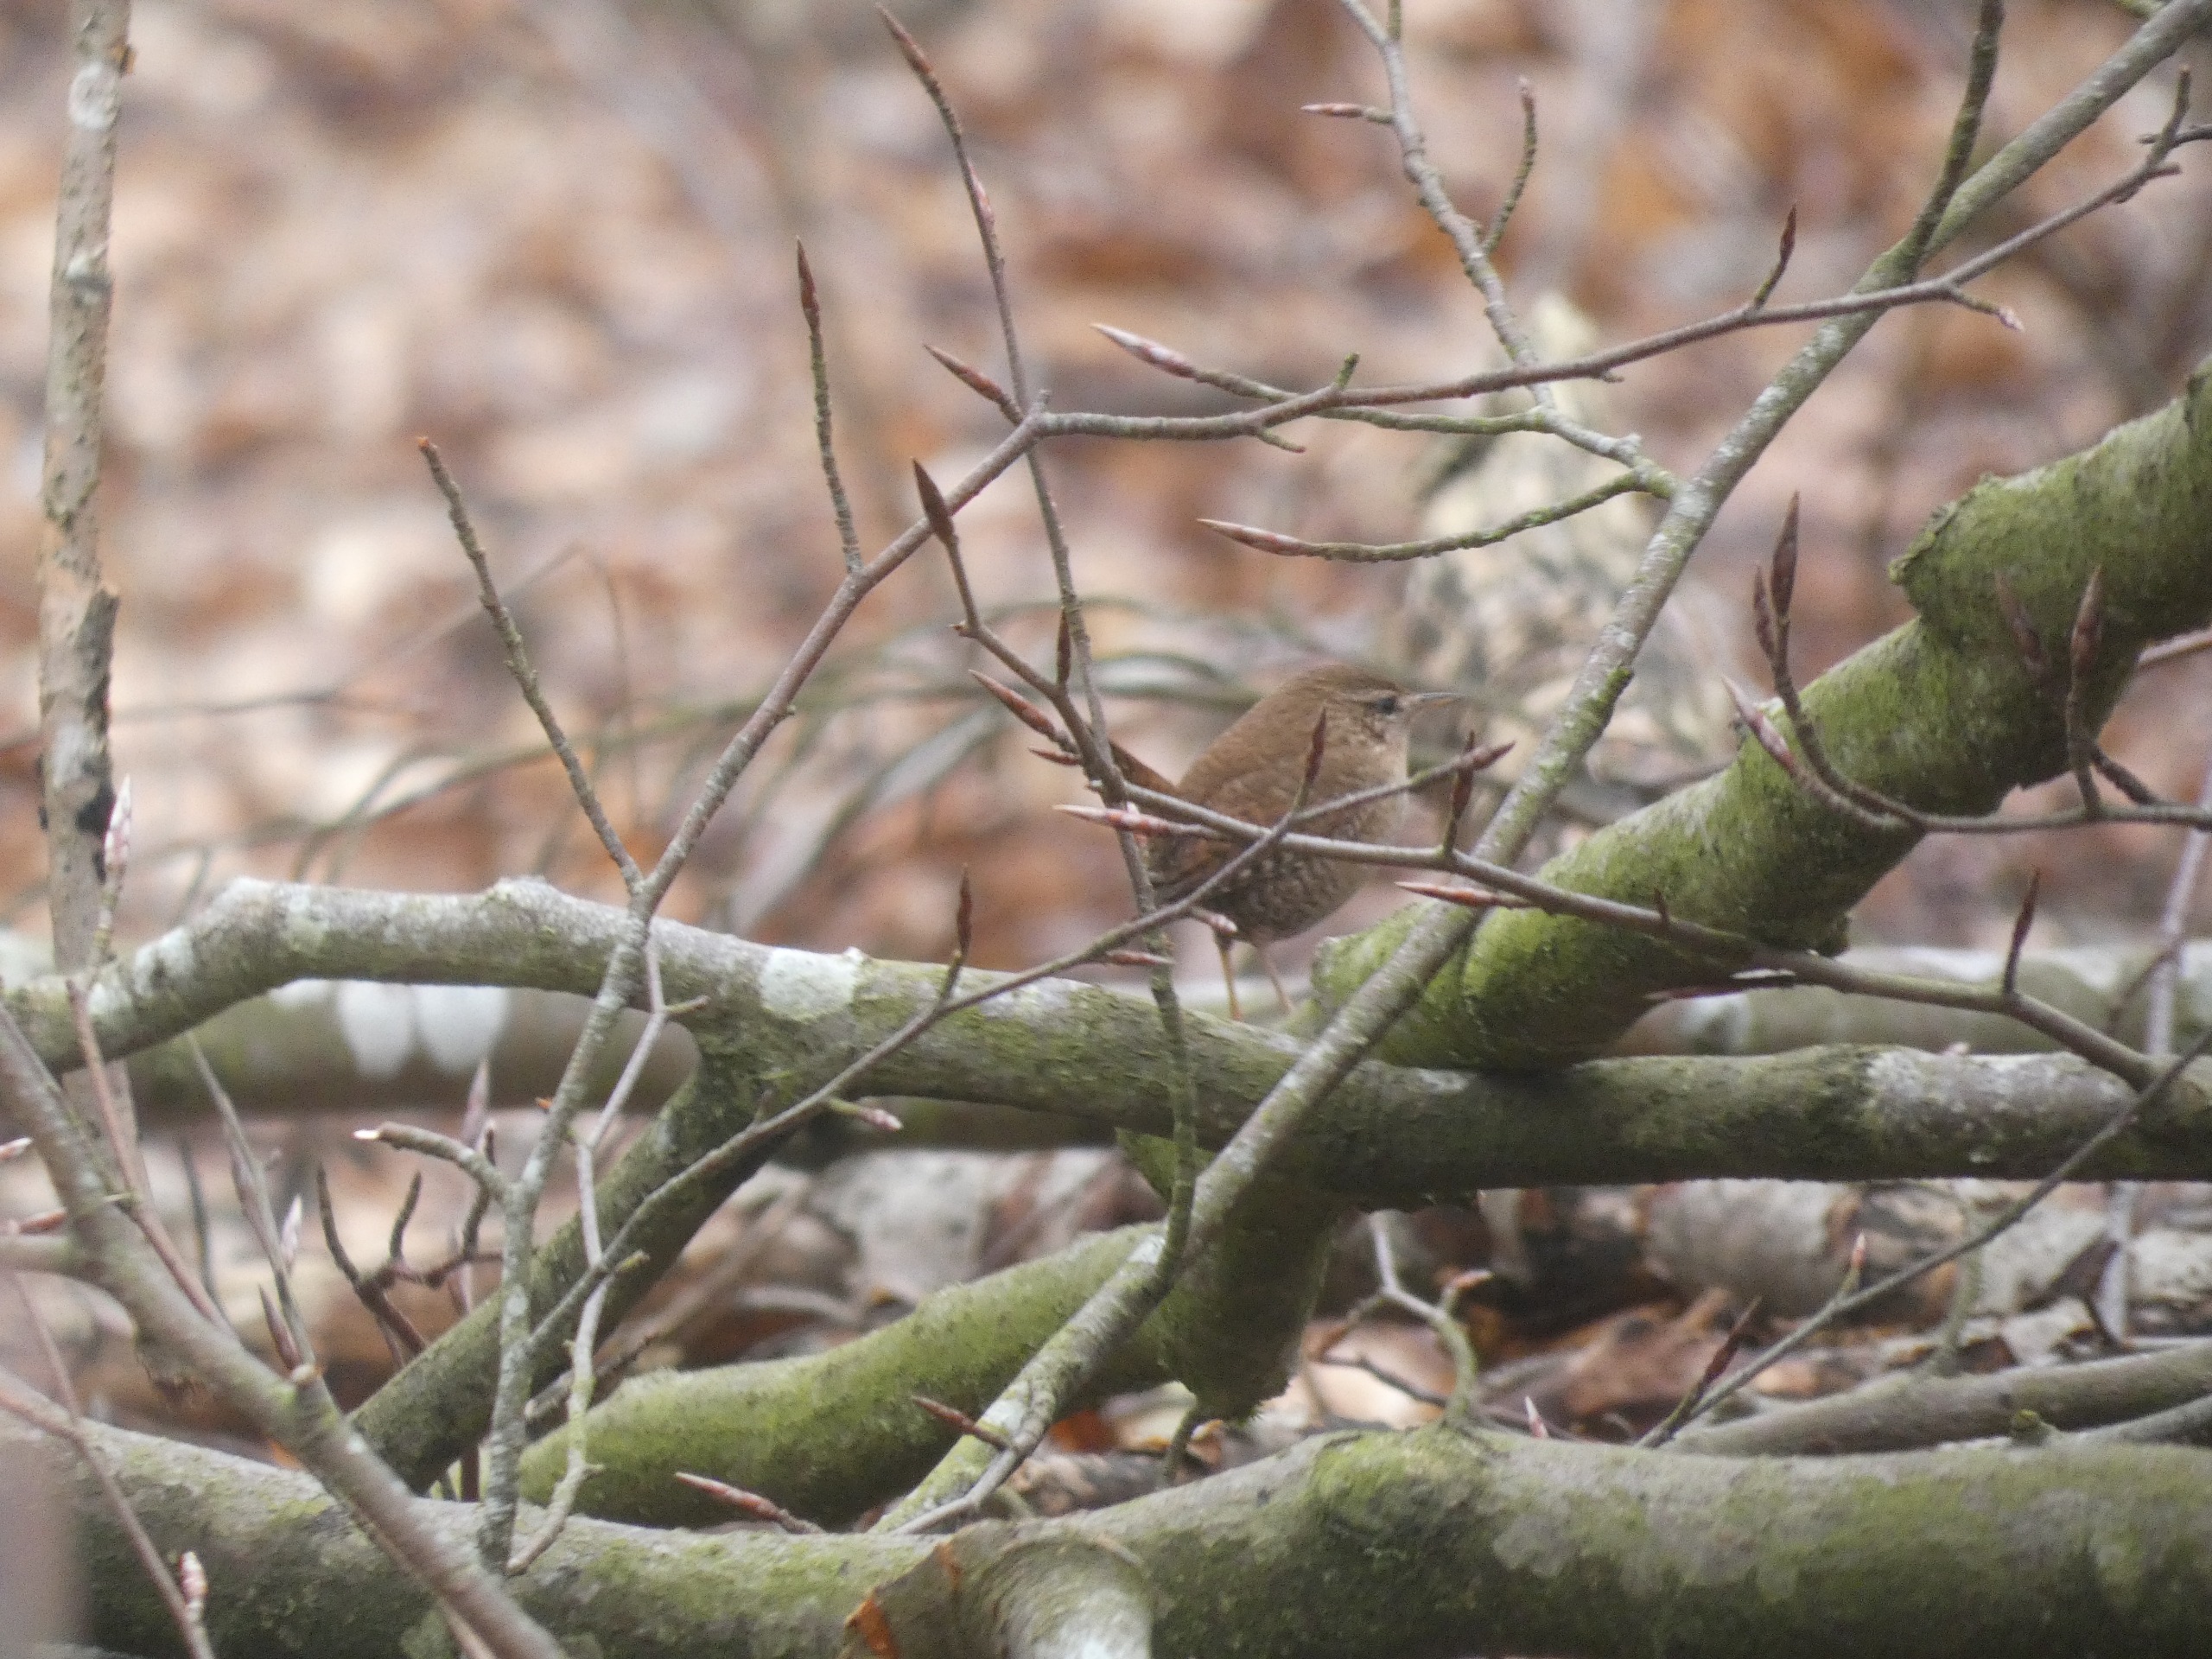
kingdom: Animalia
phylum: Chordata
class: Aves
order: Passeriformes
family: Troglodytidae
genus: Troglodytes
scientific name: Troglodytes troglodytes
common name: Gærdesmutte
